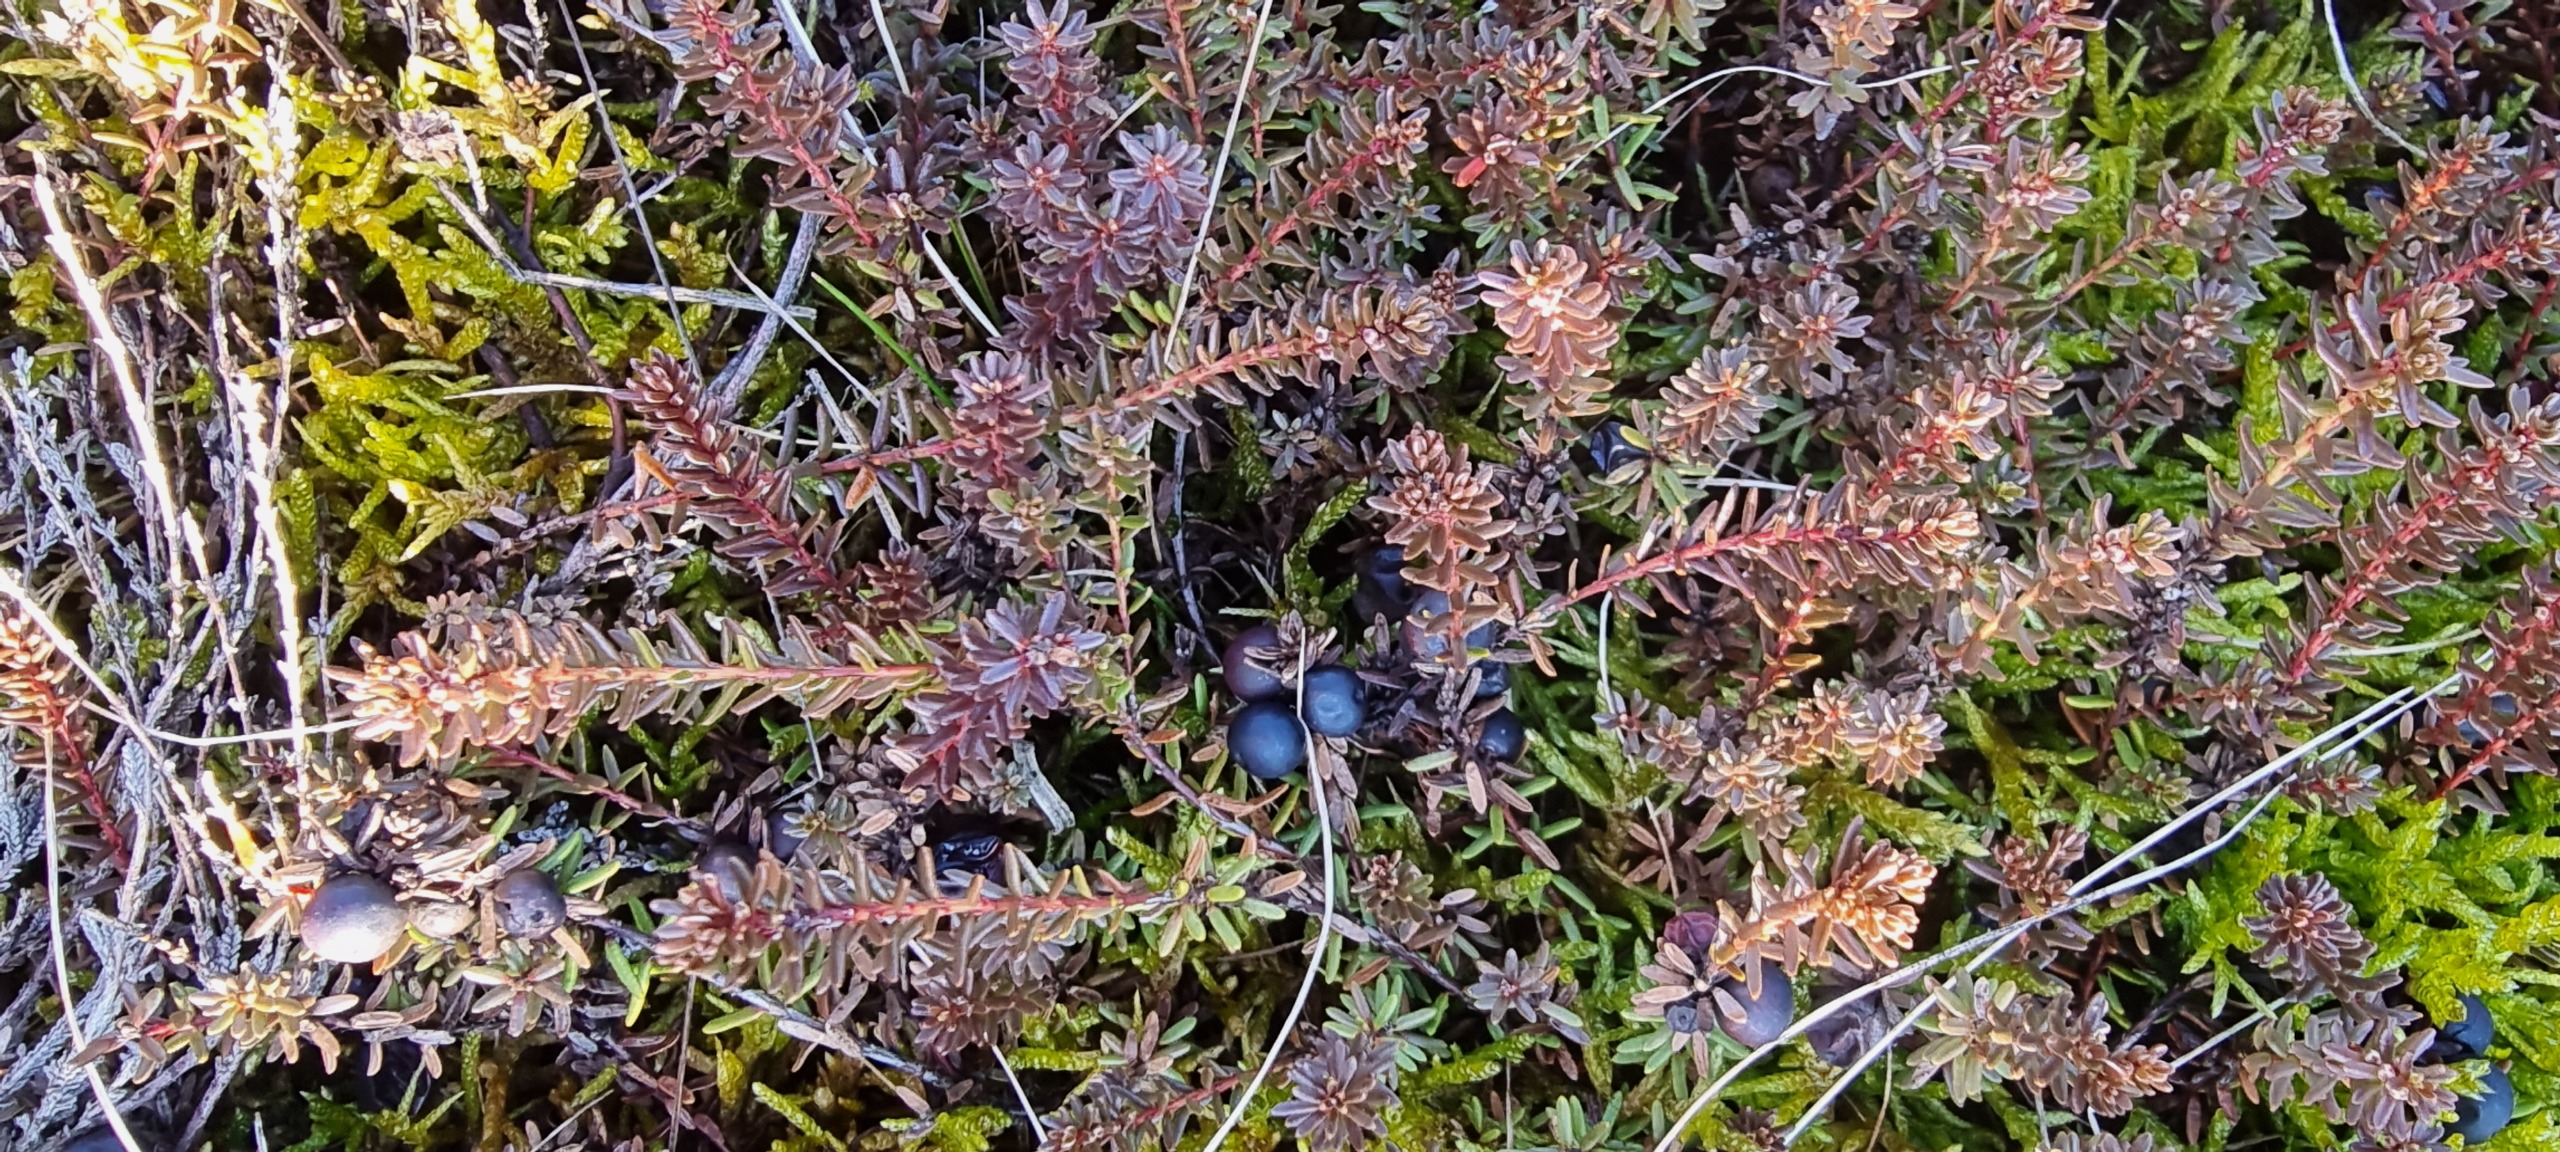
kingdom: Plantae
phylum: Tracheophyta
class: Magnoliopsida
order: Ericales
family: Ericaceae
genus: Empetrum
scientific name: Empetrum nigrum
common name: Revling
